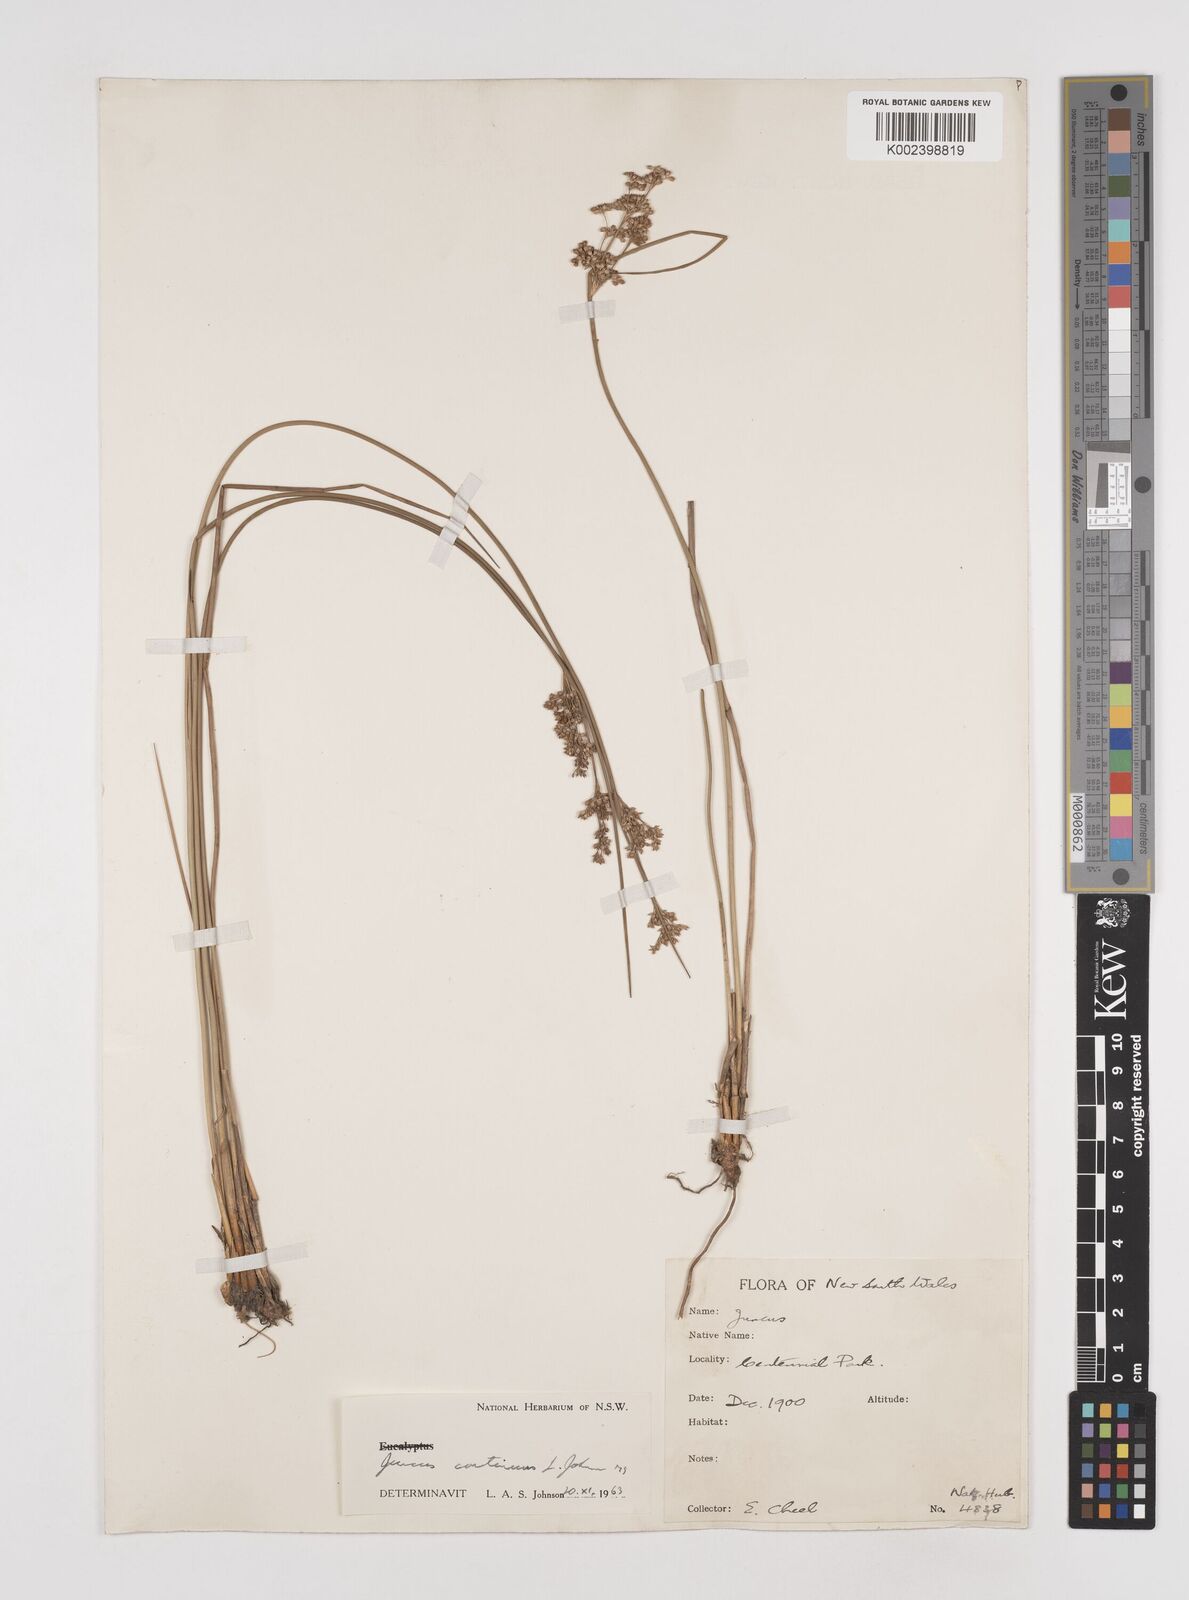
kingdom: Plantae
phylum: Tracheophyta
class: Liliopsida
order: Poales
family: Juncaceae
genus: Juncus
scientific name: Juncus
